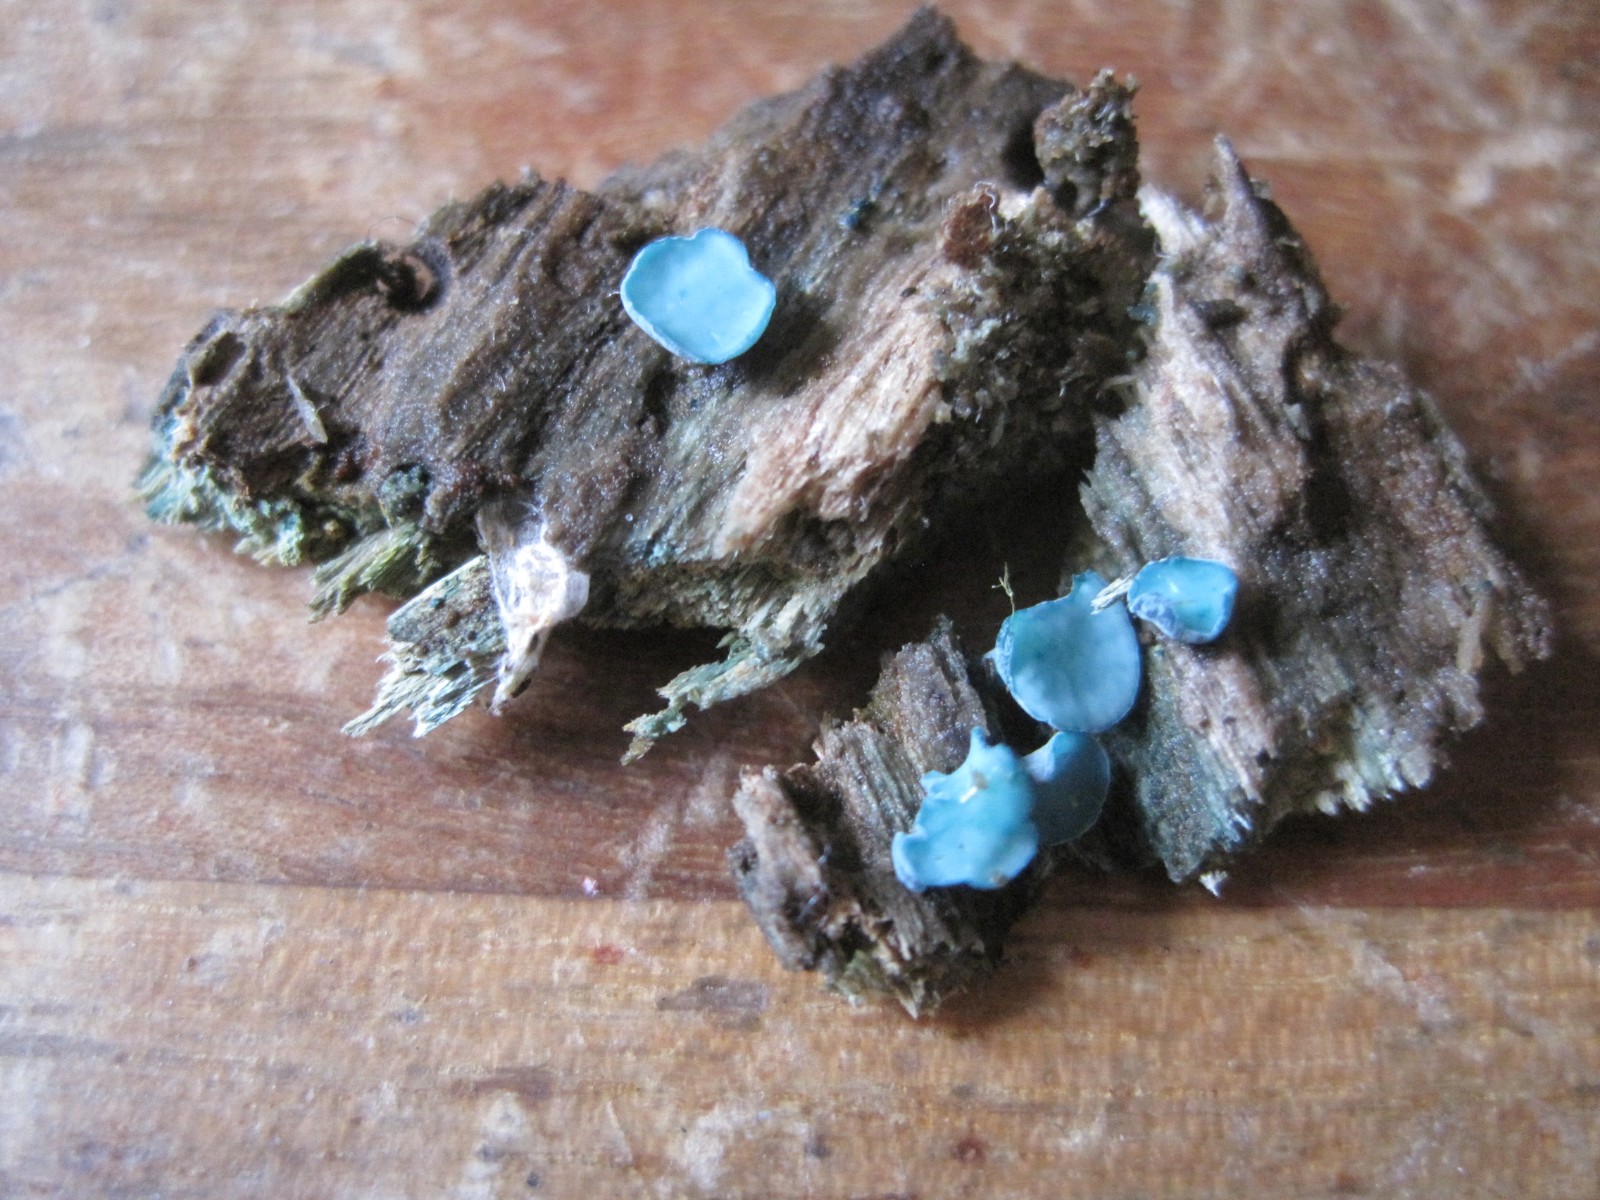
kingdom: Fungi
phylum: Ascomycota
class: Leotiomycetes
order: Helotiales
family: Chlorociboriaceae
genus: Chlorociboria
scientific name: Chlorociboria aeruginascens
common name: almindelig grønskive
